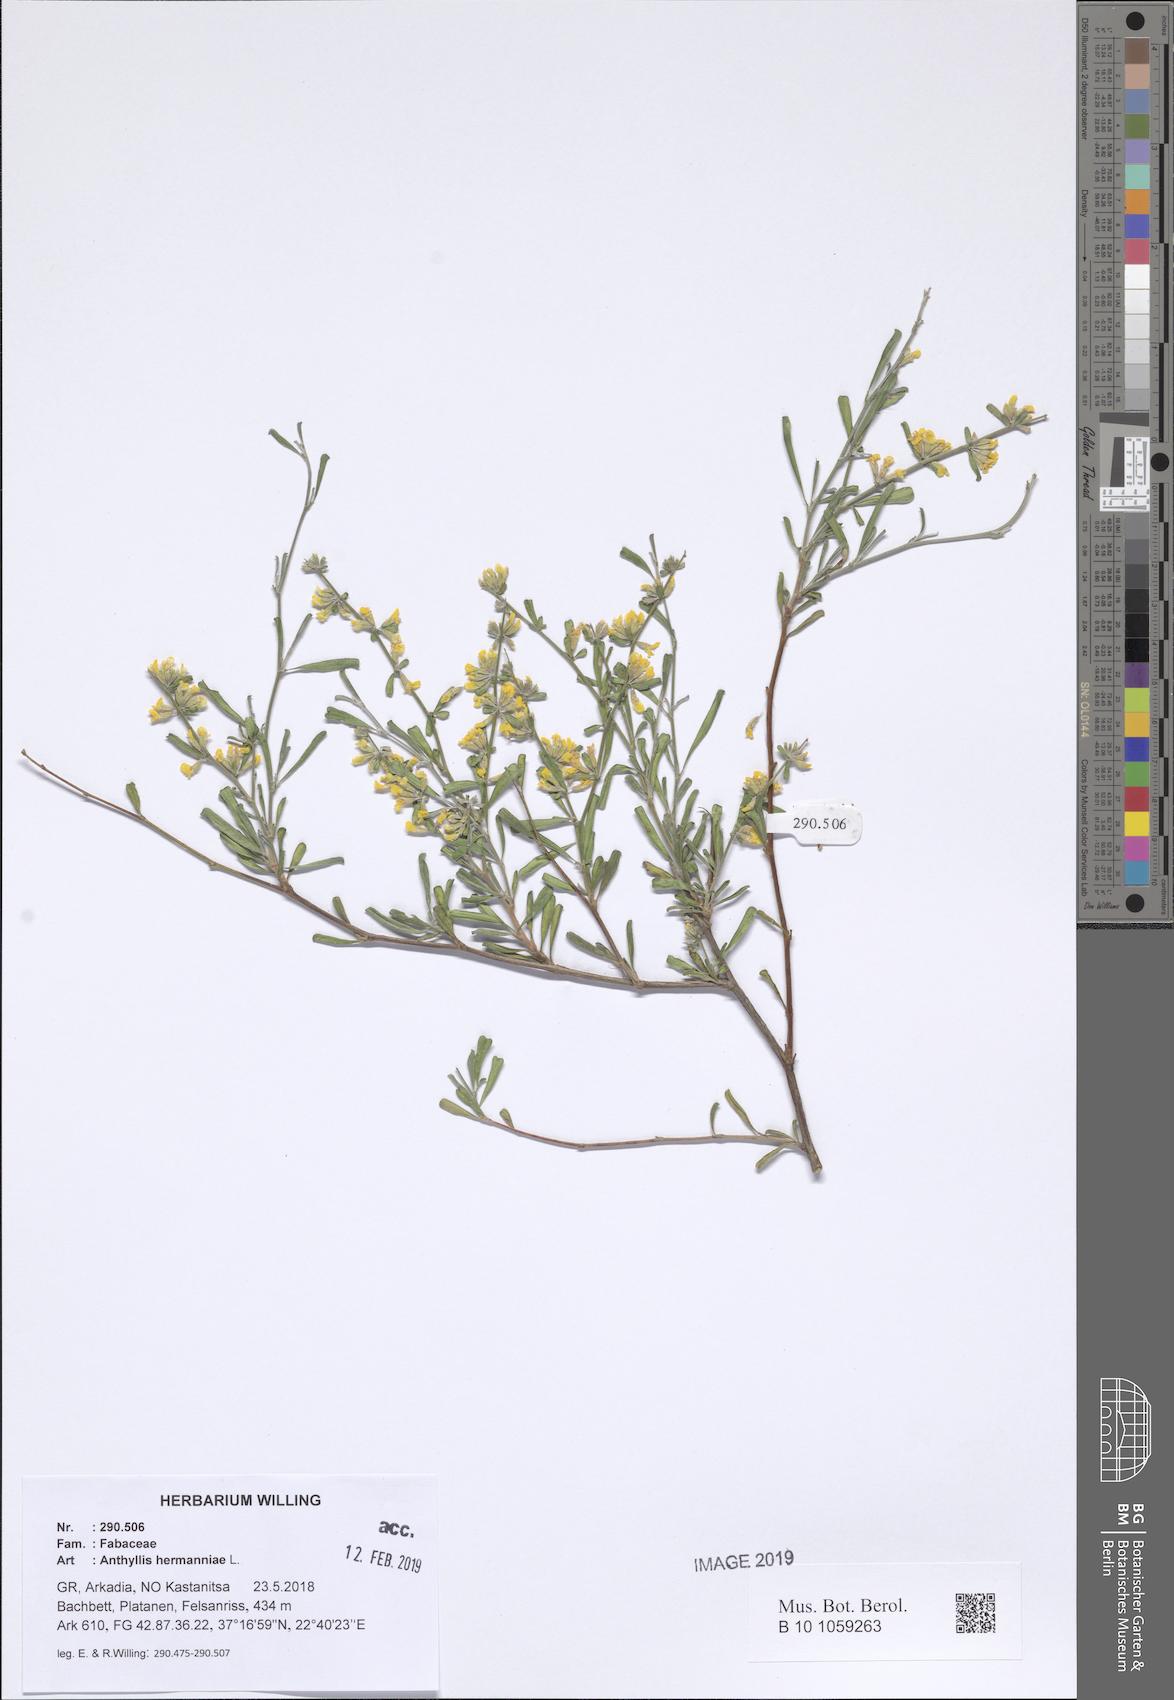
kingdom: Plantae
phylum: Tracheophyta
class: Magnoliopsida
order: Fabales
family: Fabaceae
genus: Anthyllis
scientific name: Anthyllis hermanniae
